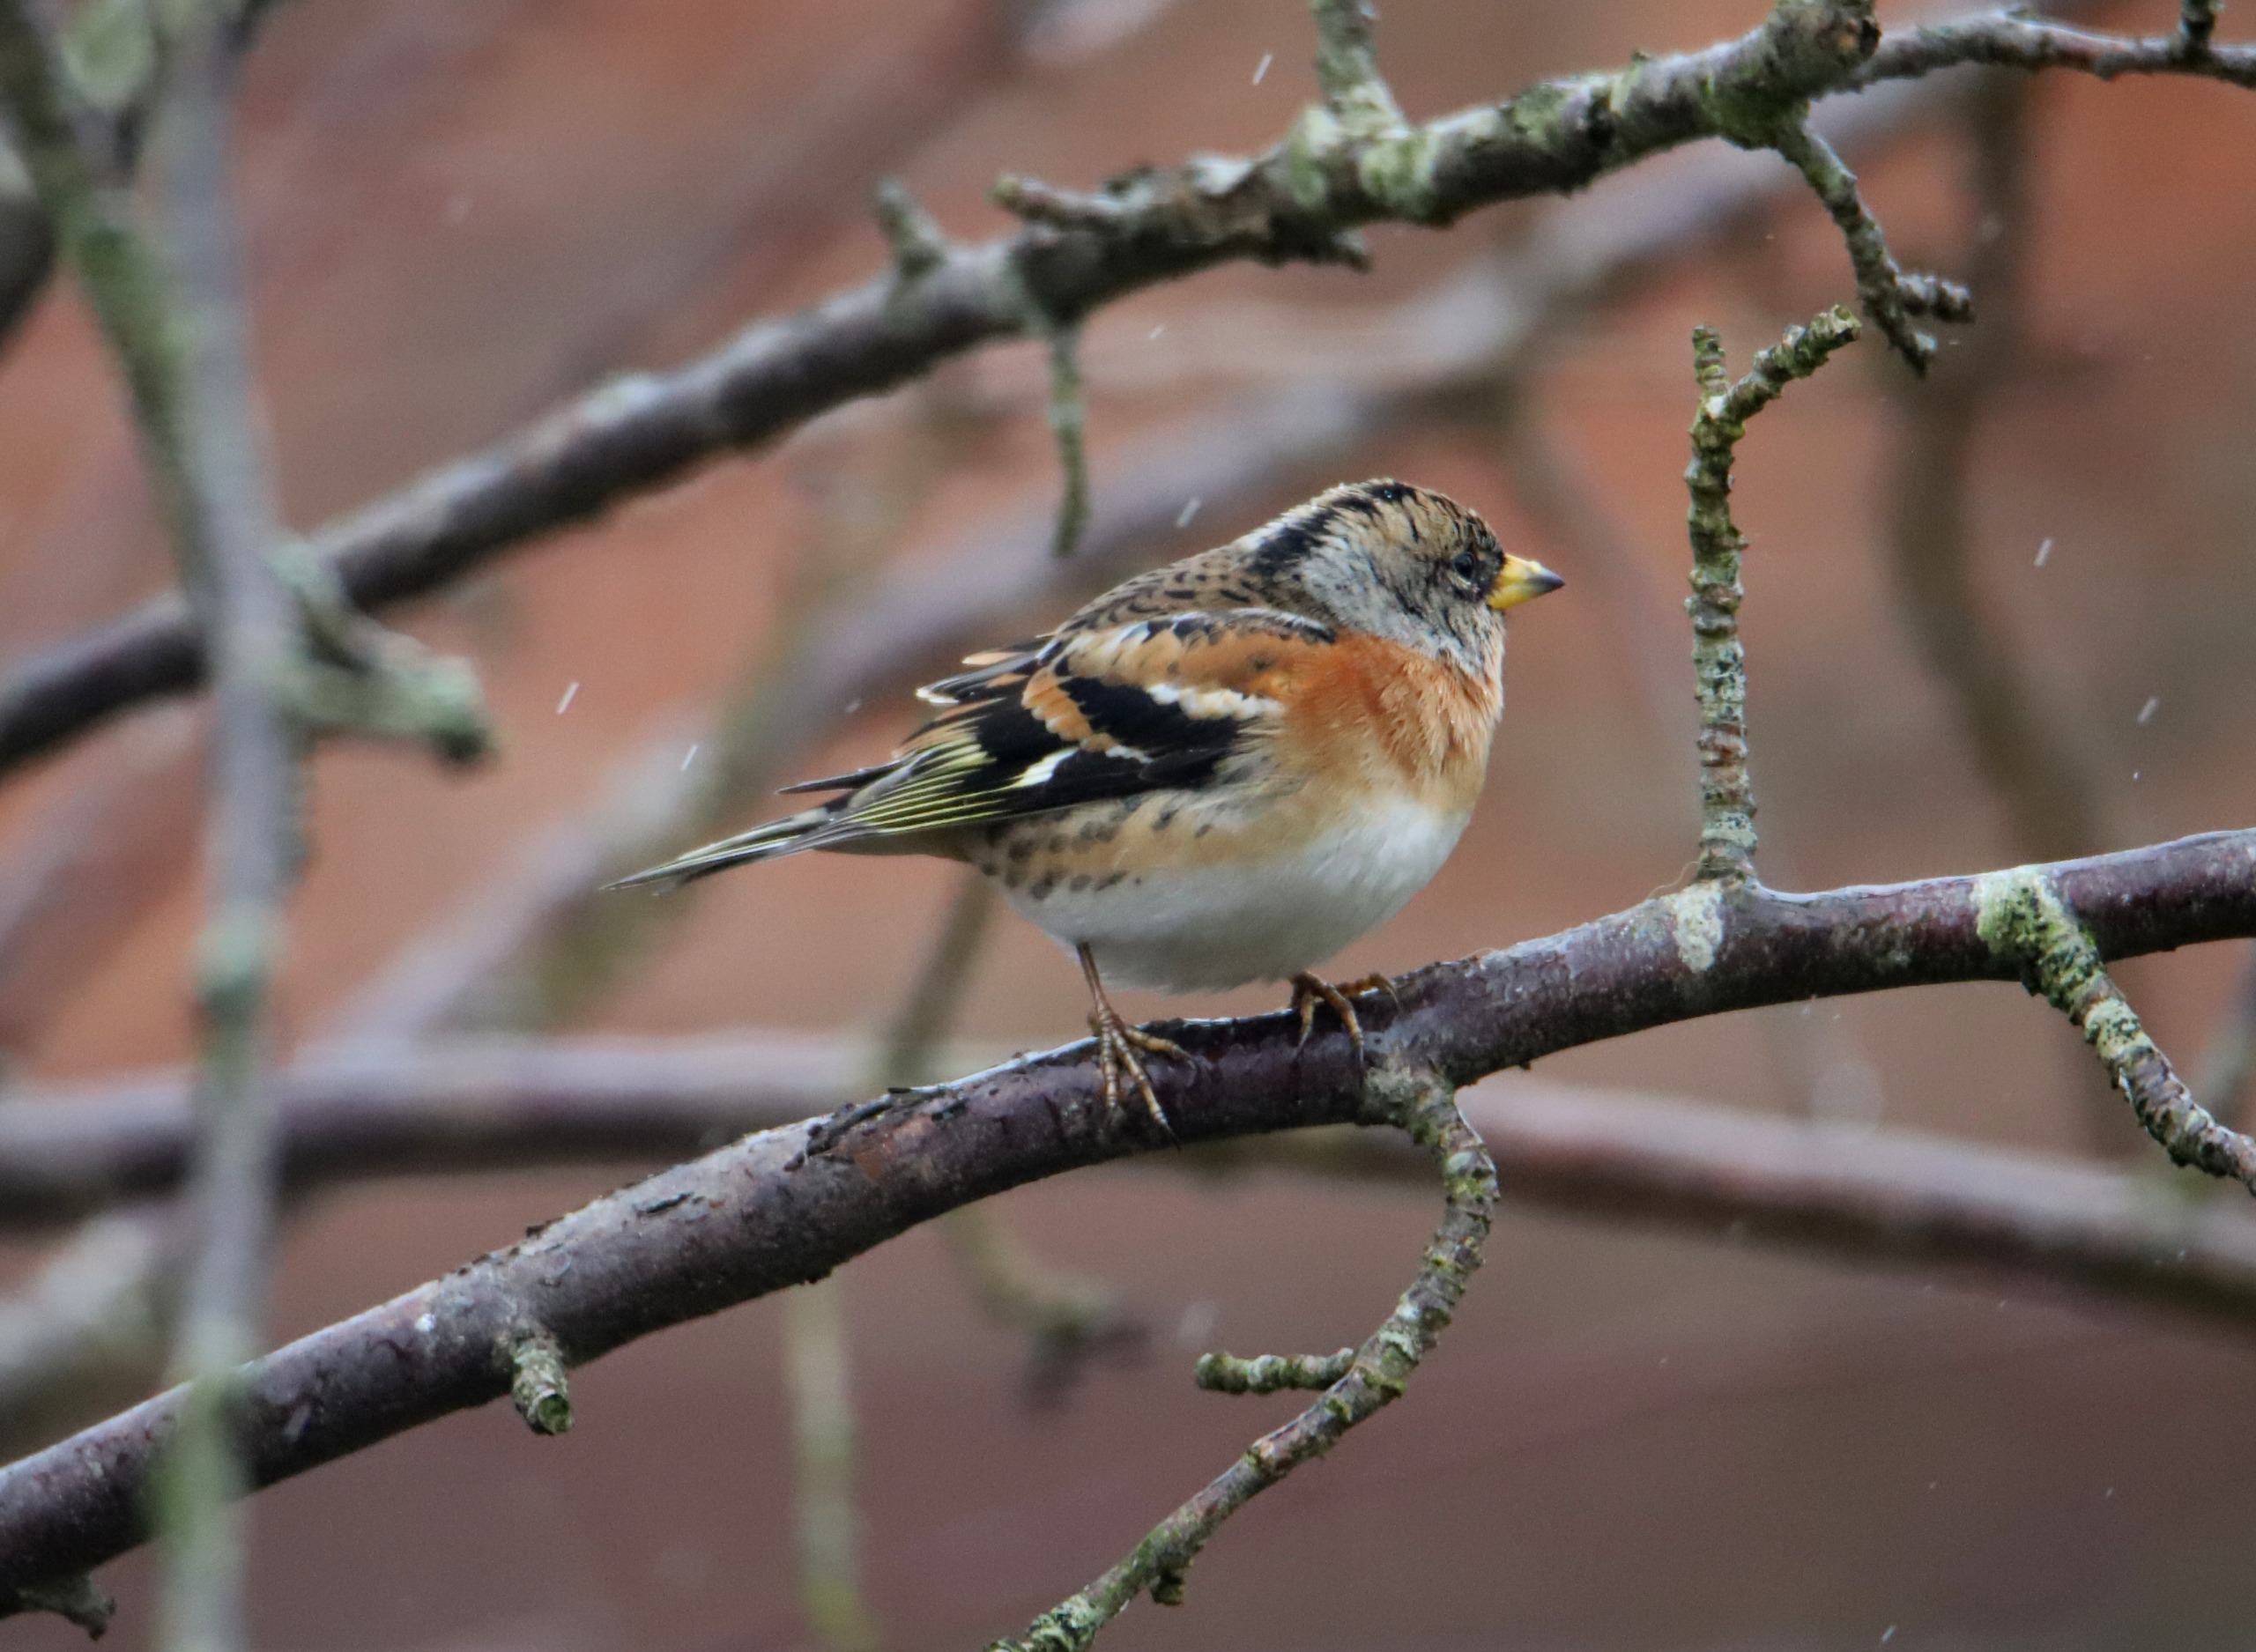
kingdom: Animalia
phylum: Chordata
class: Aves
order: Passeriformes
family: Fringillidae
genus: Fringilla
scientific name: Fringilla montifringilla
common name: Kvækerfinke
